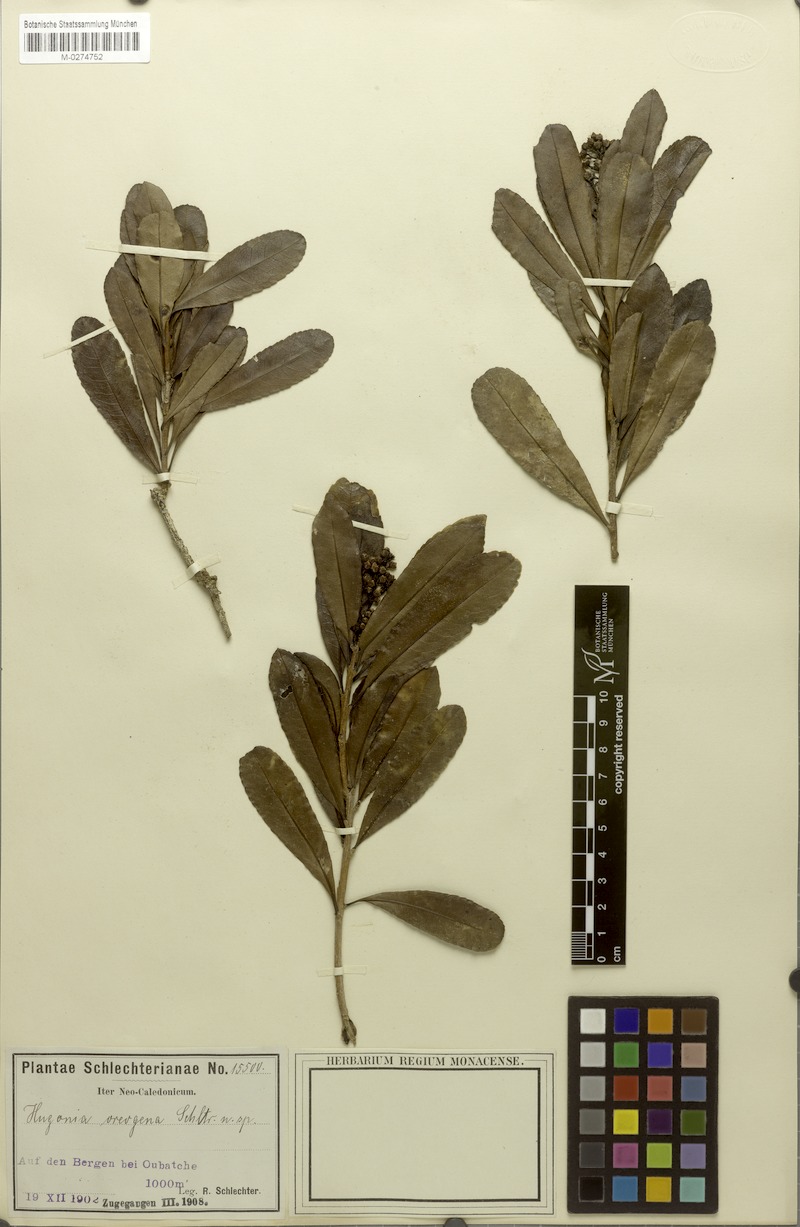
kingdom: Plantae
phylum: Tracheophyta
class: Magnoliopsida
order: Malpighiales
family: Linaceae
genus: Durandea
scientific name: Durandea oreogena
